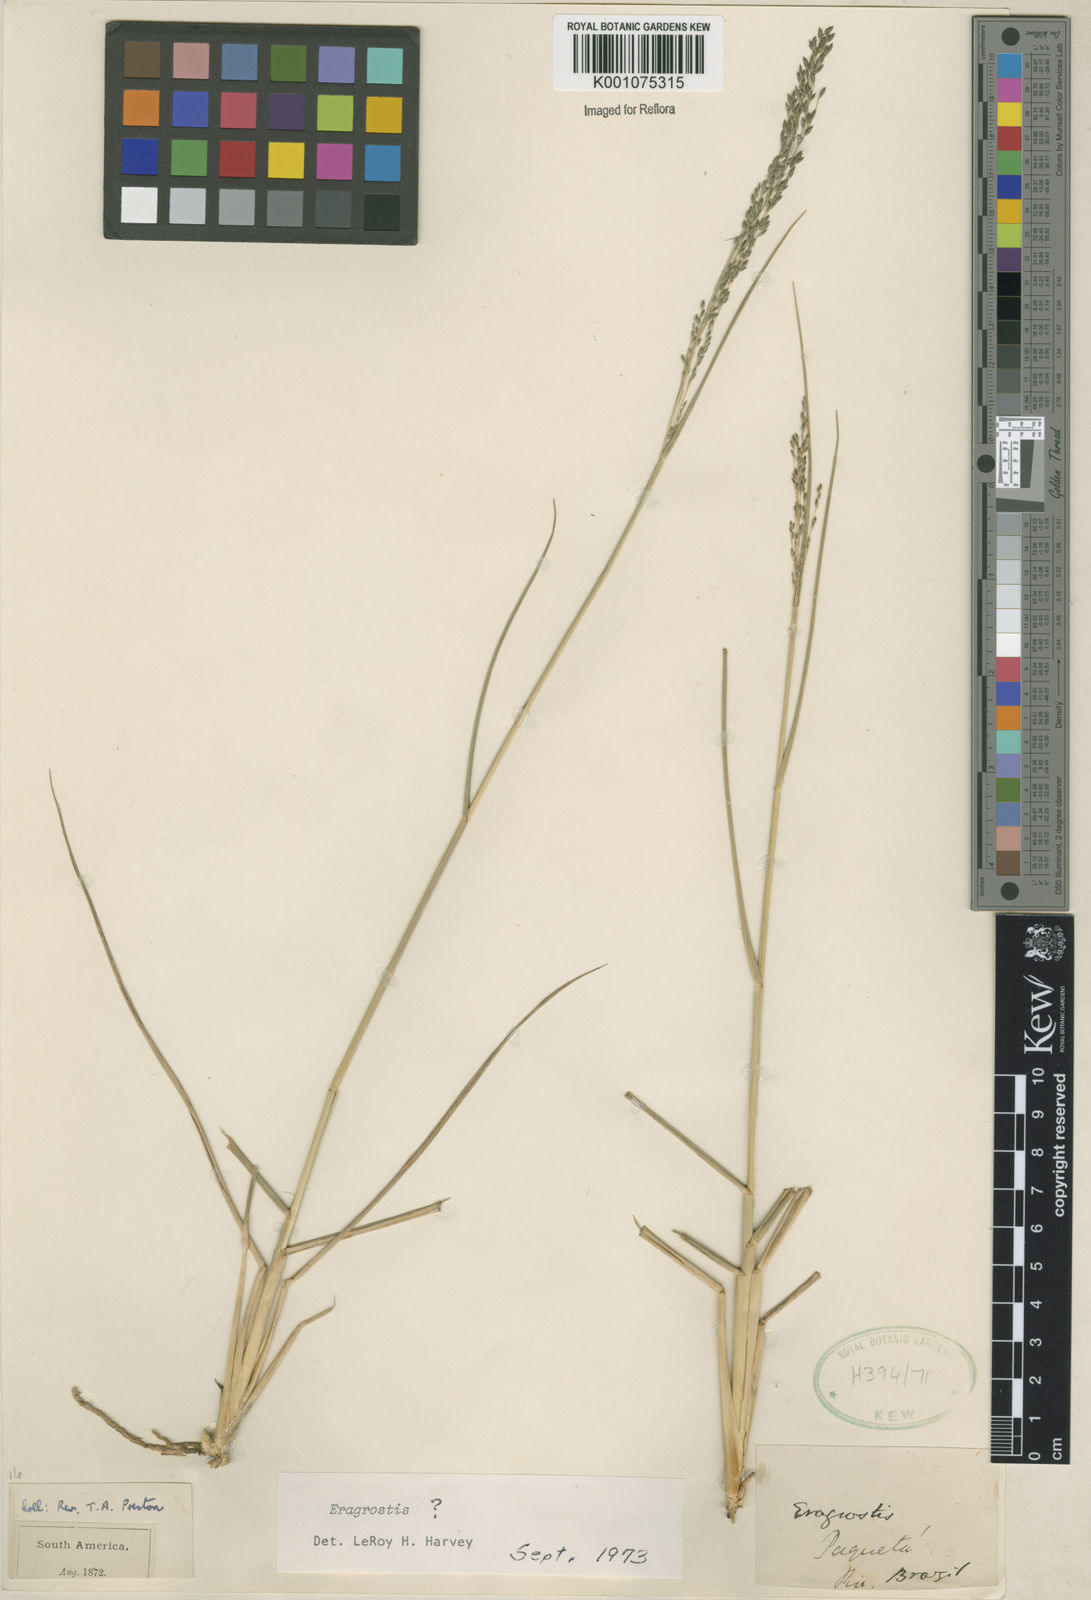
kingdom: Plantae
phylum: Tracheophyta
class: Liliopsida
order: Poales
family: Poaceae
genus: Eragrostis
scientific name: Eragrostis bahiensis
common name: Bahia lovegrass
